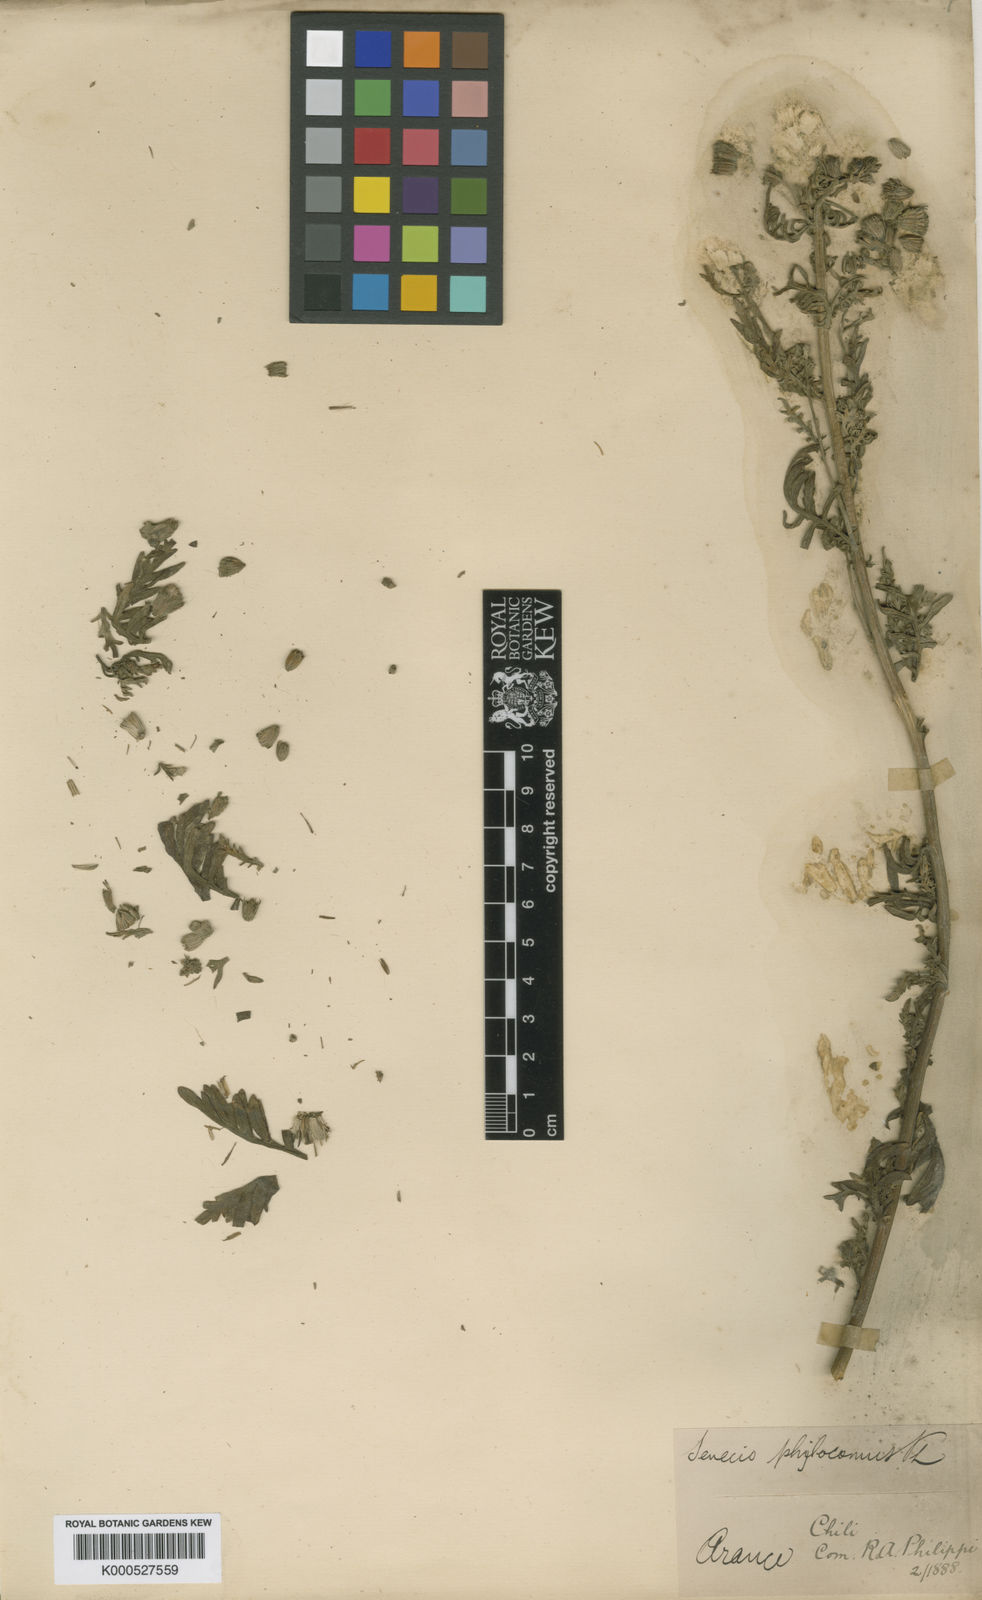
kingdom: Plantae
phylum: Tracheophyta
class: Magnoliopsida
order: Asterales
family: Asteraceae
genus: Senecio
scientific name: Senecio glaber
